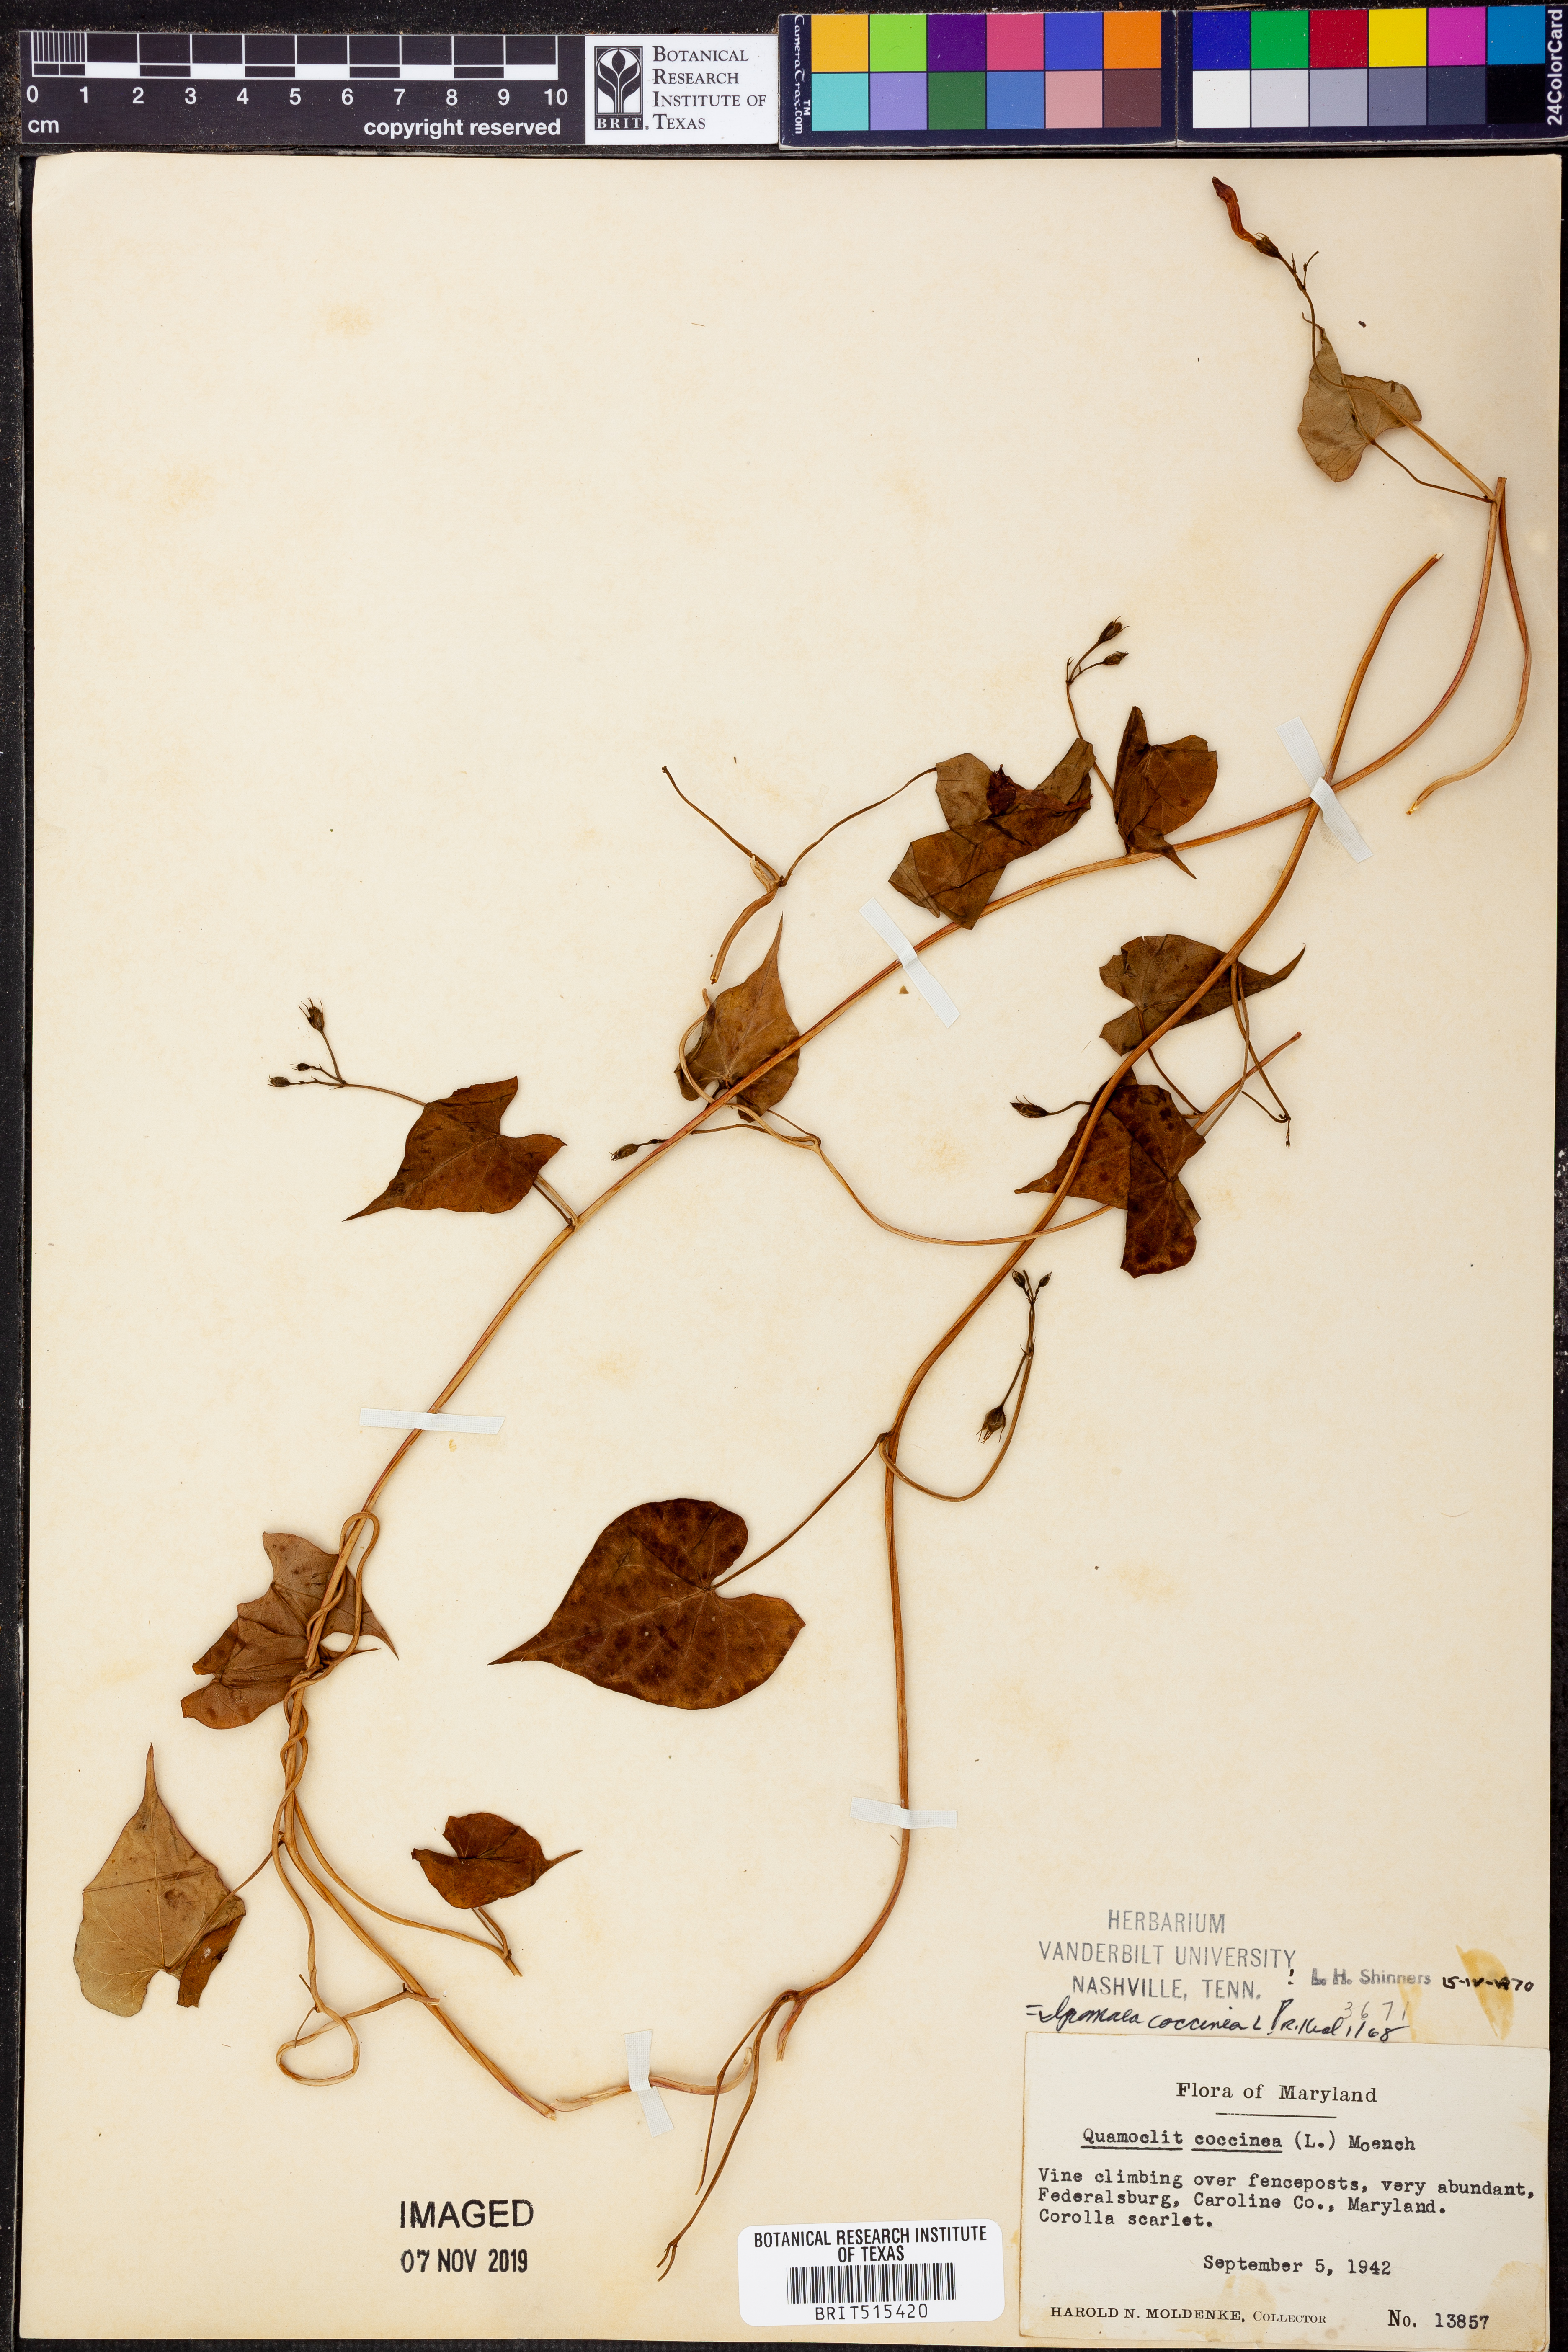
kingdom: Plantae
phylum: Tracheophyta
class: Magnoliopsida
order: Solanales
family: Convolvulaceae
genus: Ipomoea
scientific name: Ipomoea coccinea
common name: Red morning-glory
